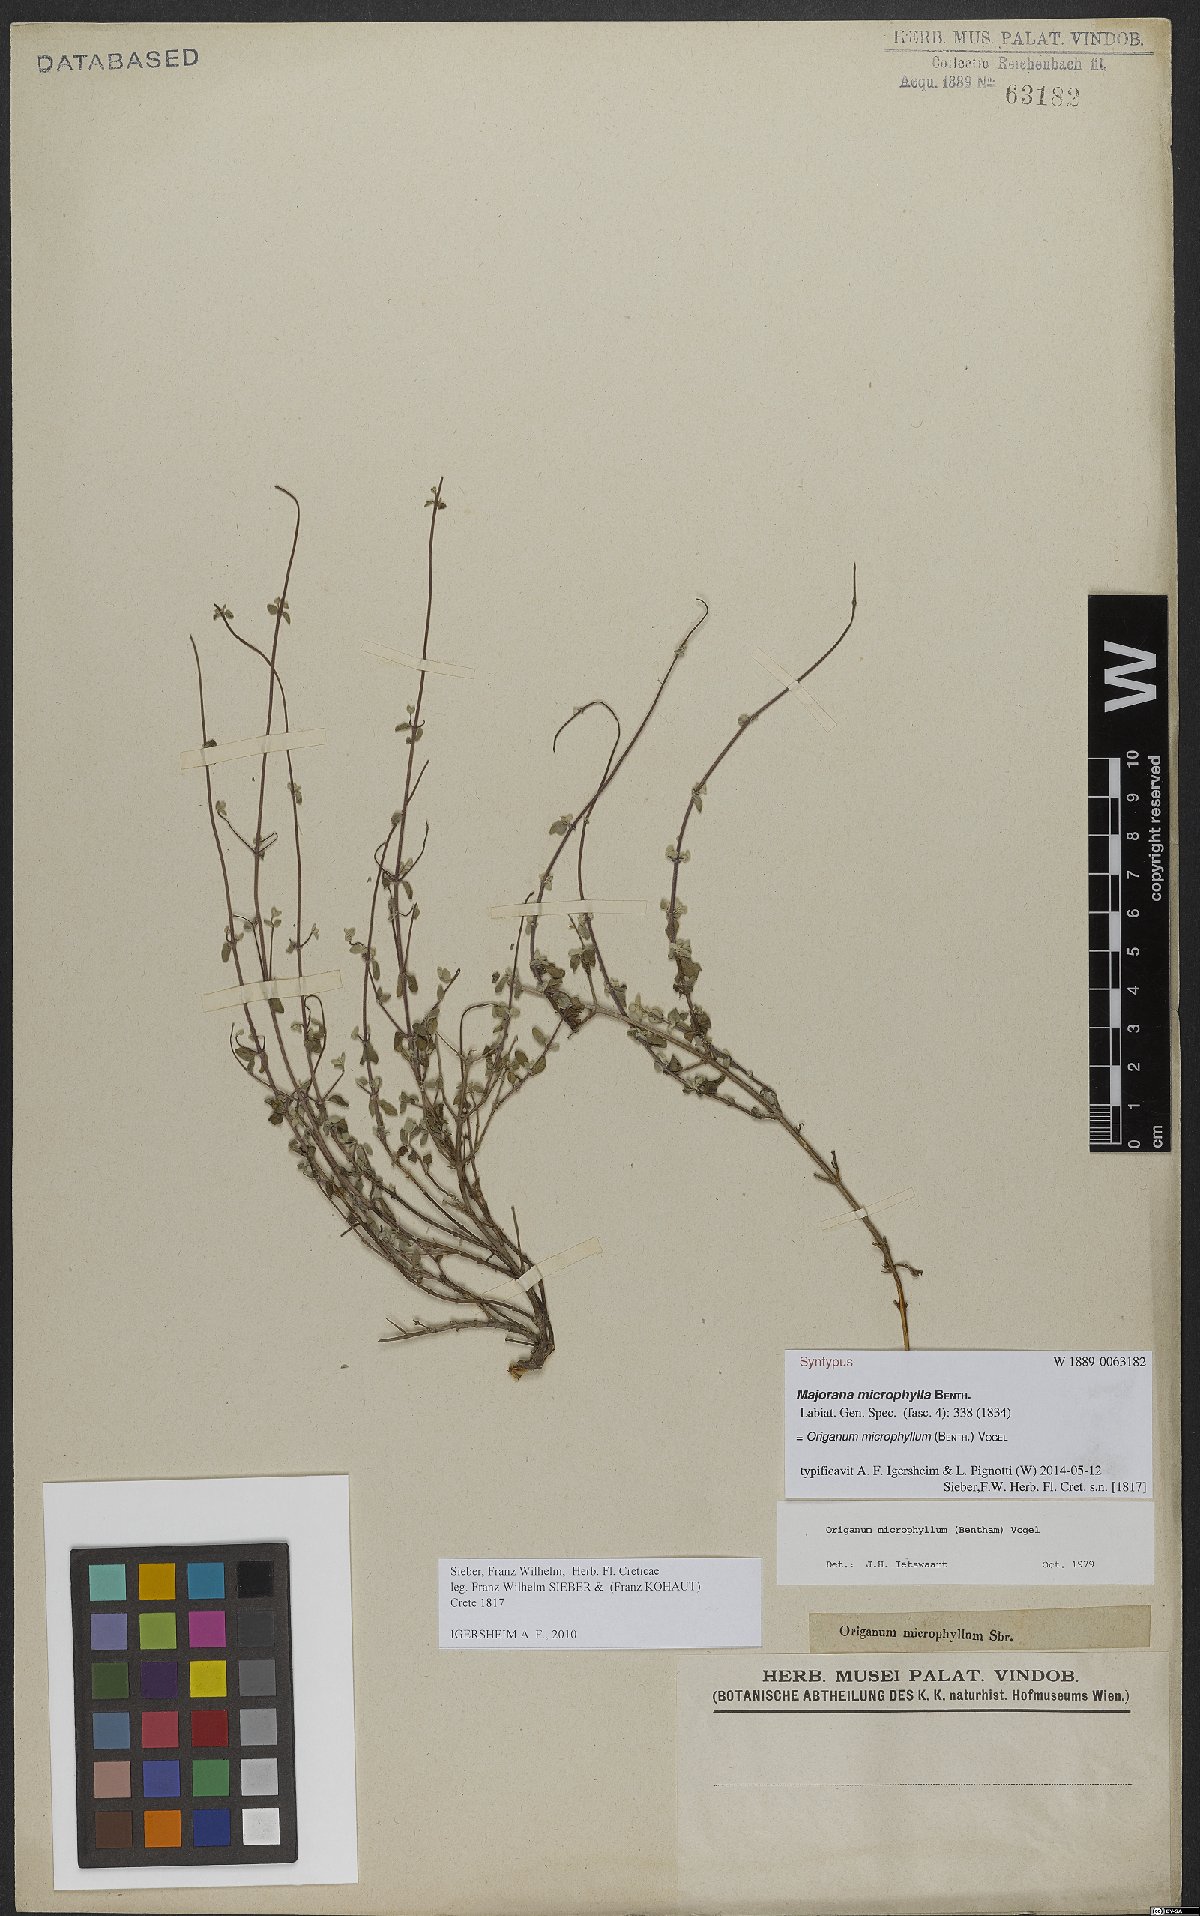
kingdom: Plantae
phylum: Tracheophyta
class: Magnoliopsida
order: Lamiales
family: Lamiaceae
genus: Origanum
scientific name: Origanum microphyllum
